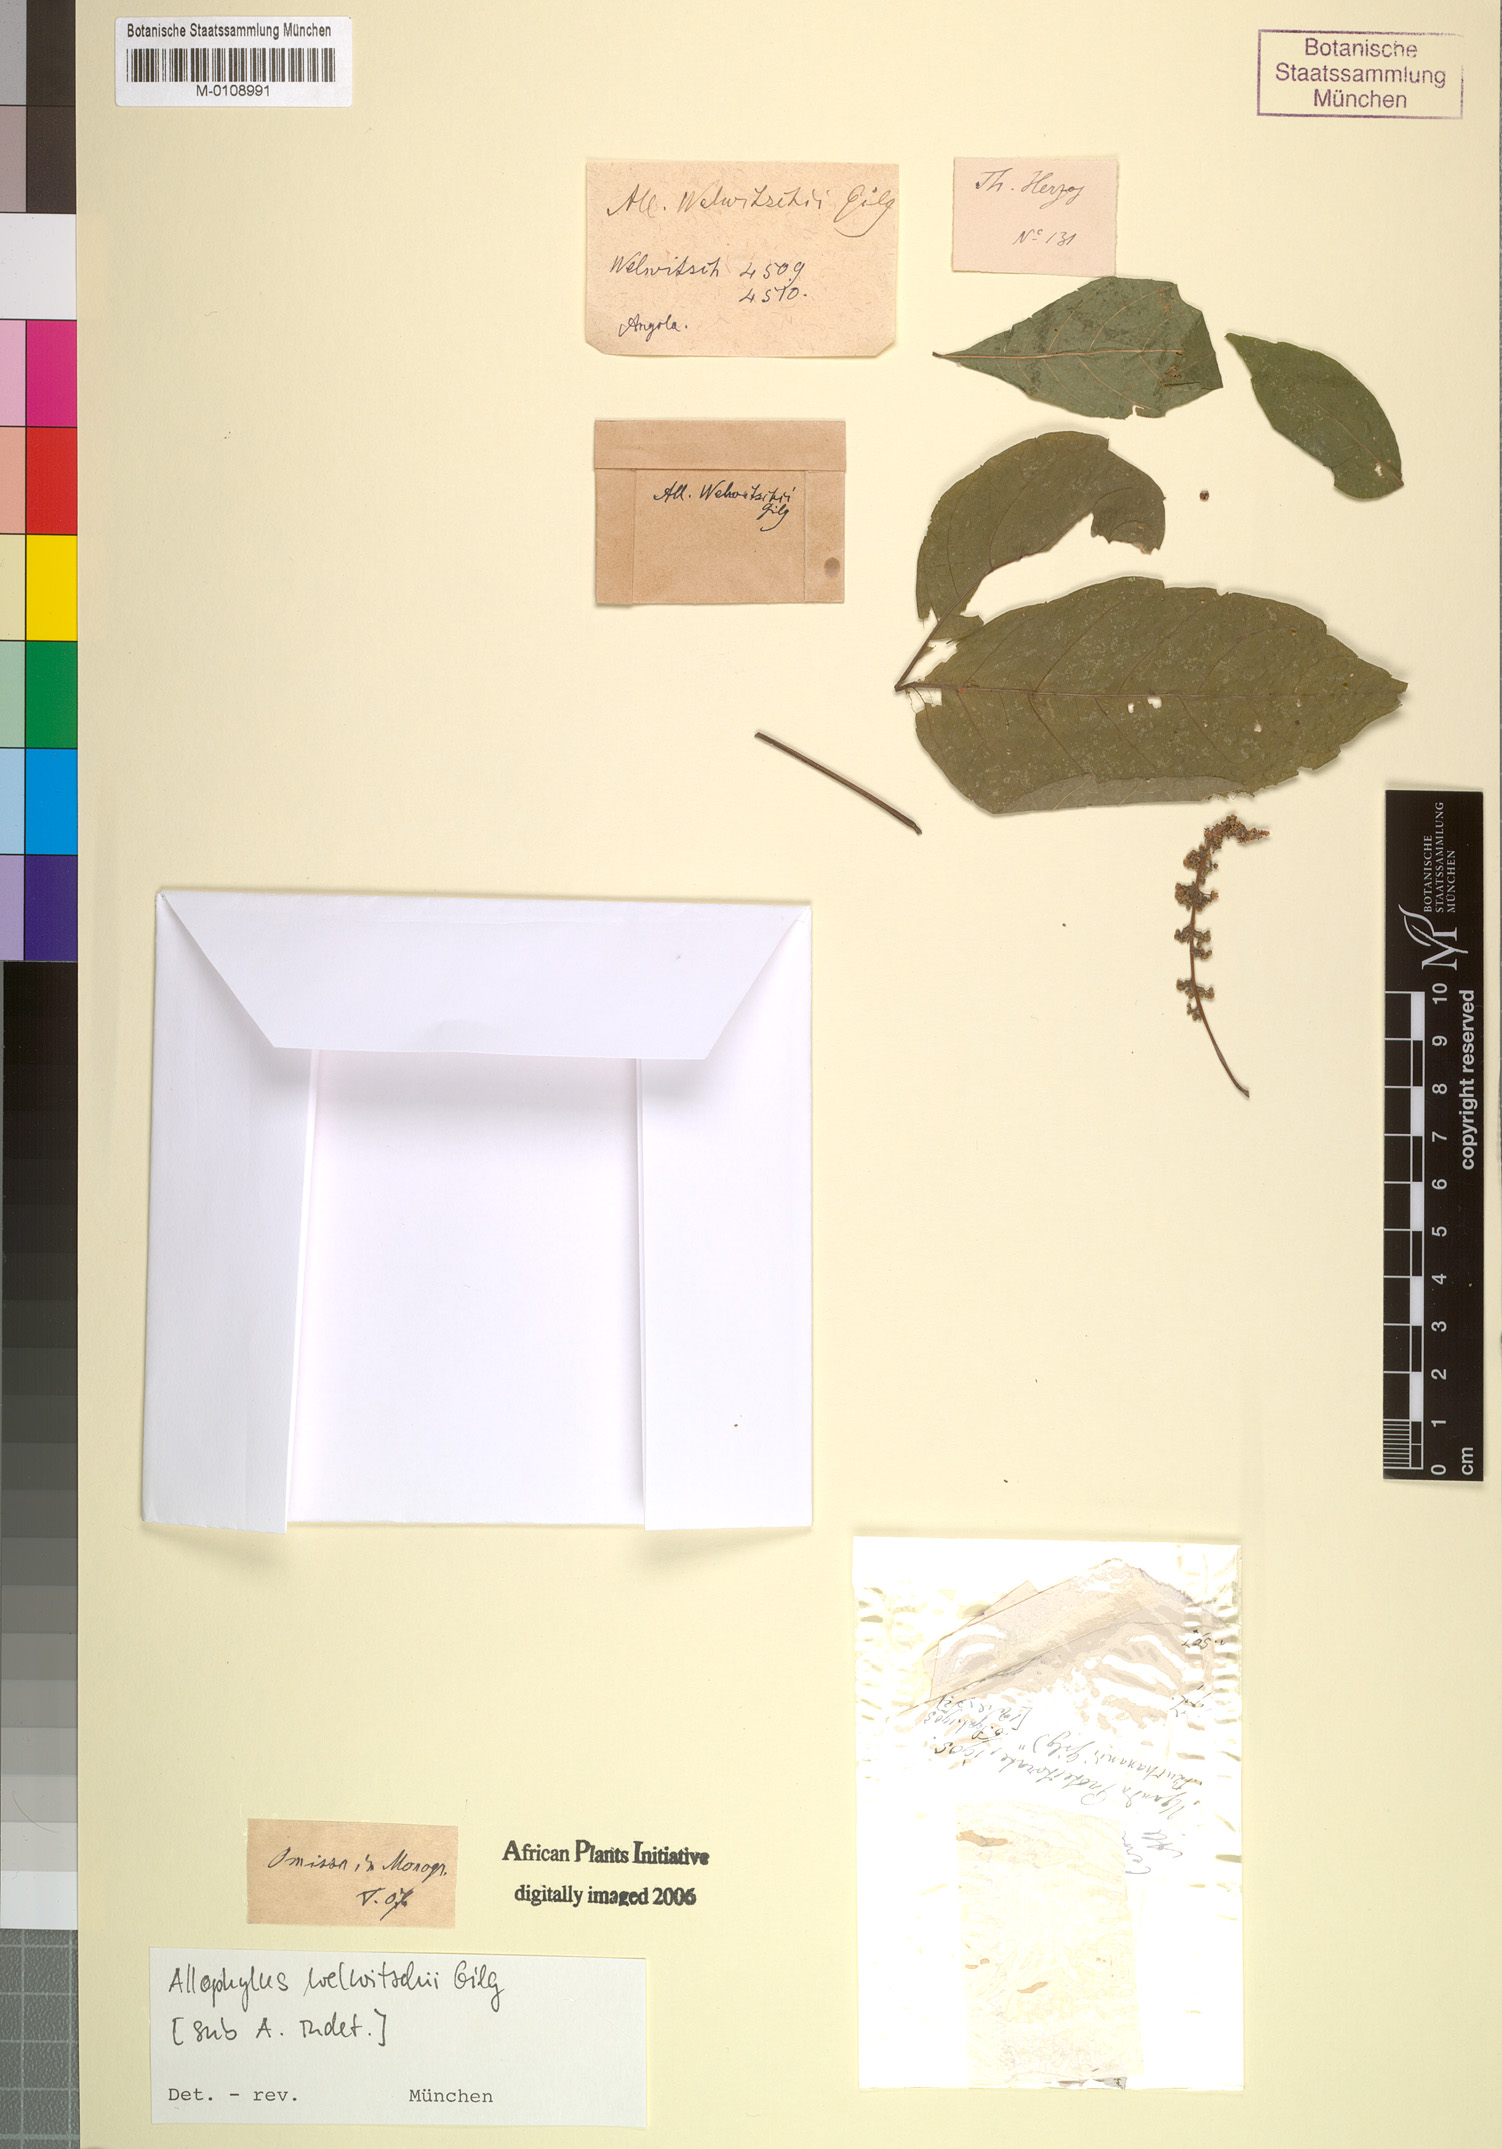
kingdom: Plantae
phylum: Tracheophyta
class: Magnoliopsida
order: Sapindales
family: Sapindaceae
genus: Allophylus
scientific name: Allophylus ferrugineus
